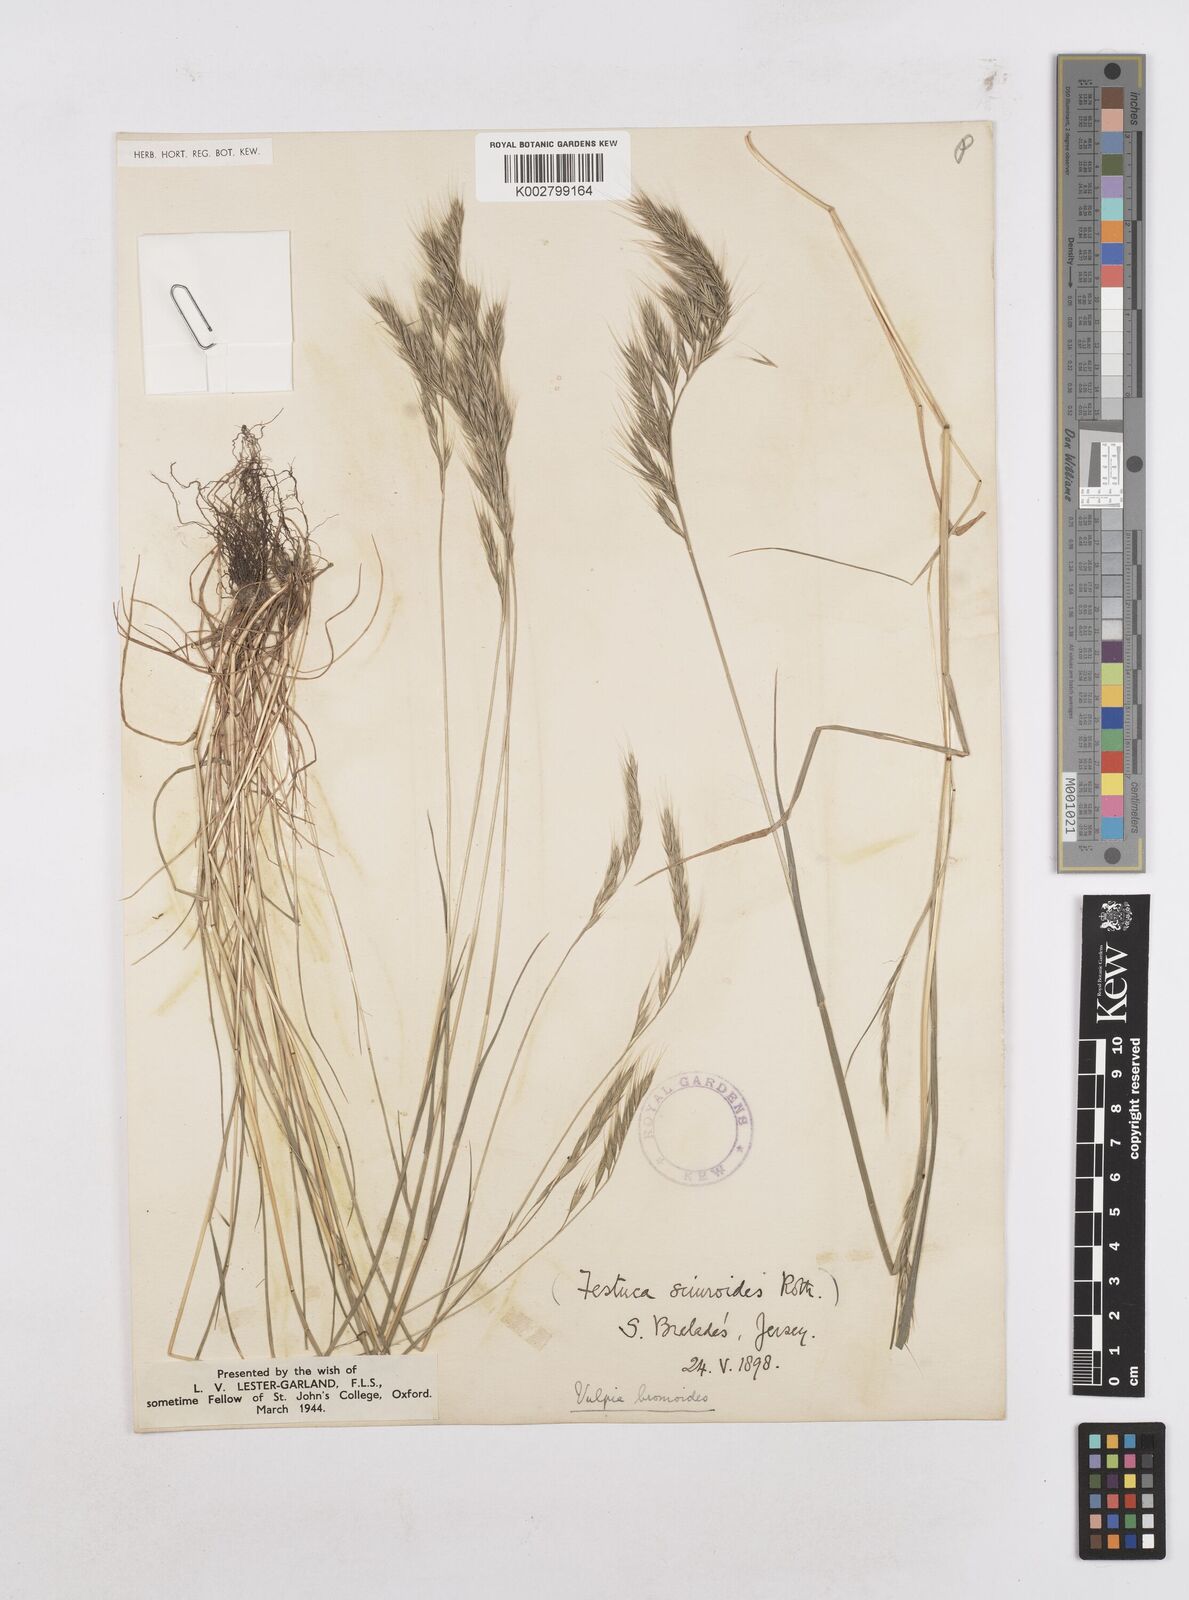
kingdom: Plantae
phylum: Tracheophyta
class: Liliopsida
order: Poales
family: Poaceae
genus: Festuca
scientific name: Festuca bromoides
